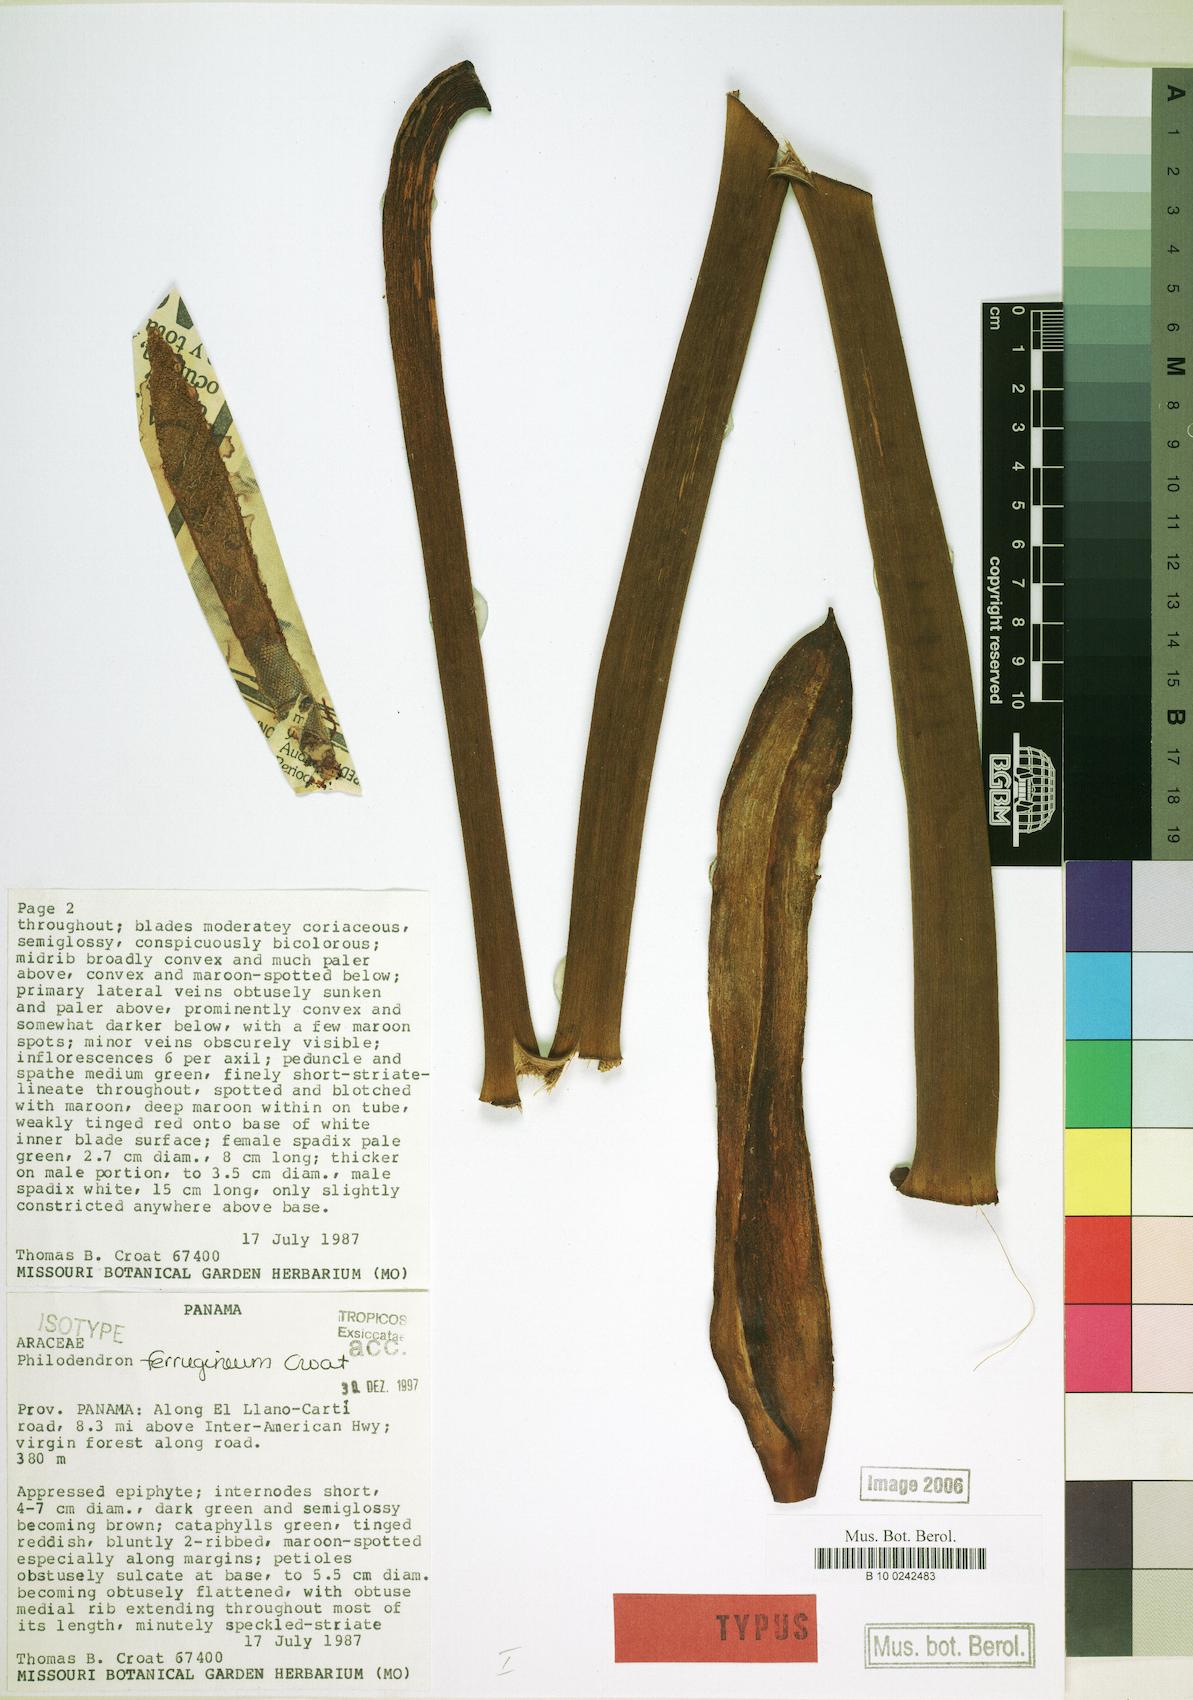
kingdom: Plantae
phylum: Tracheophyta
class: Liliopsida
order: Alismatales
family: Araceae
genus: Philodendron
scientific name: Philodendron ferrugineum
